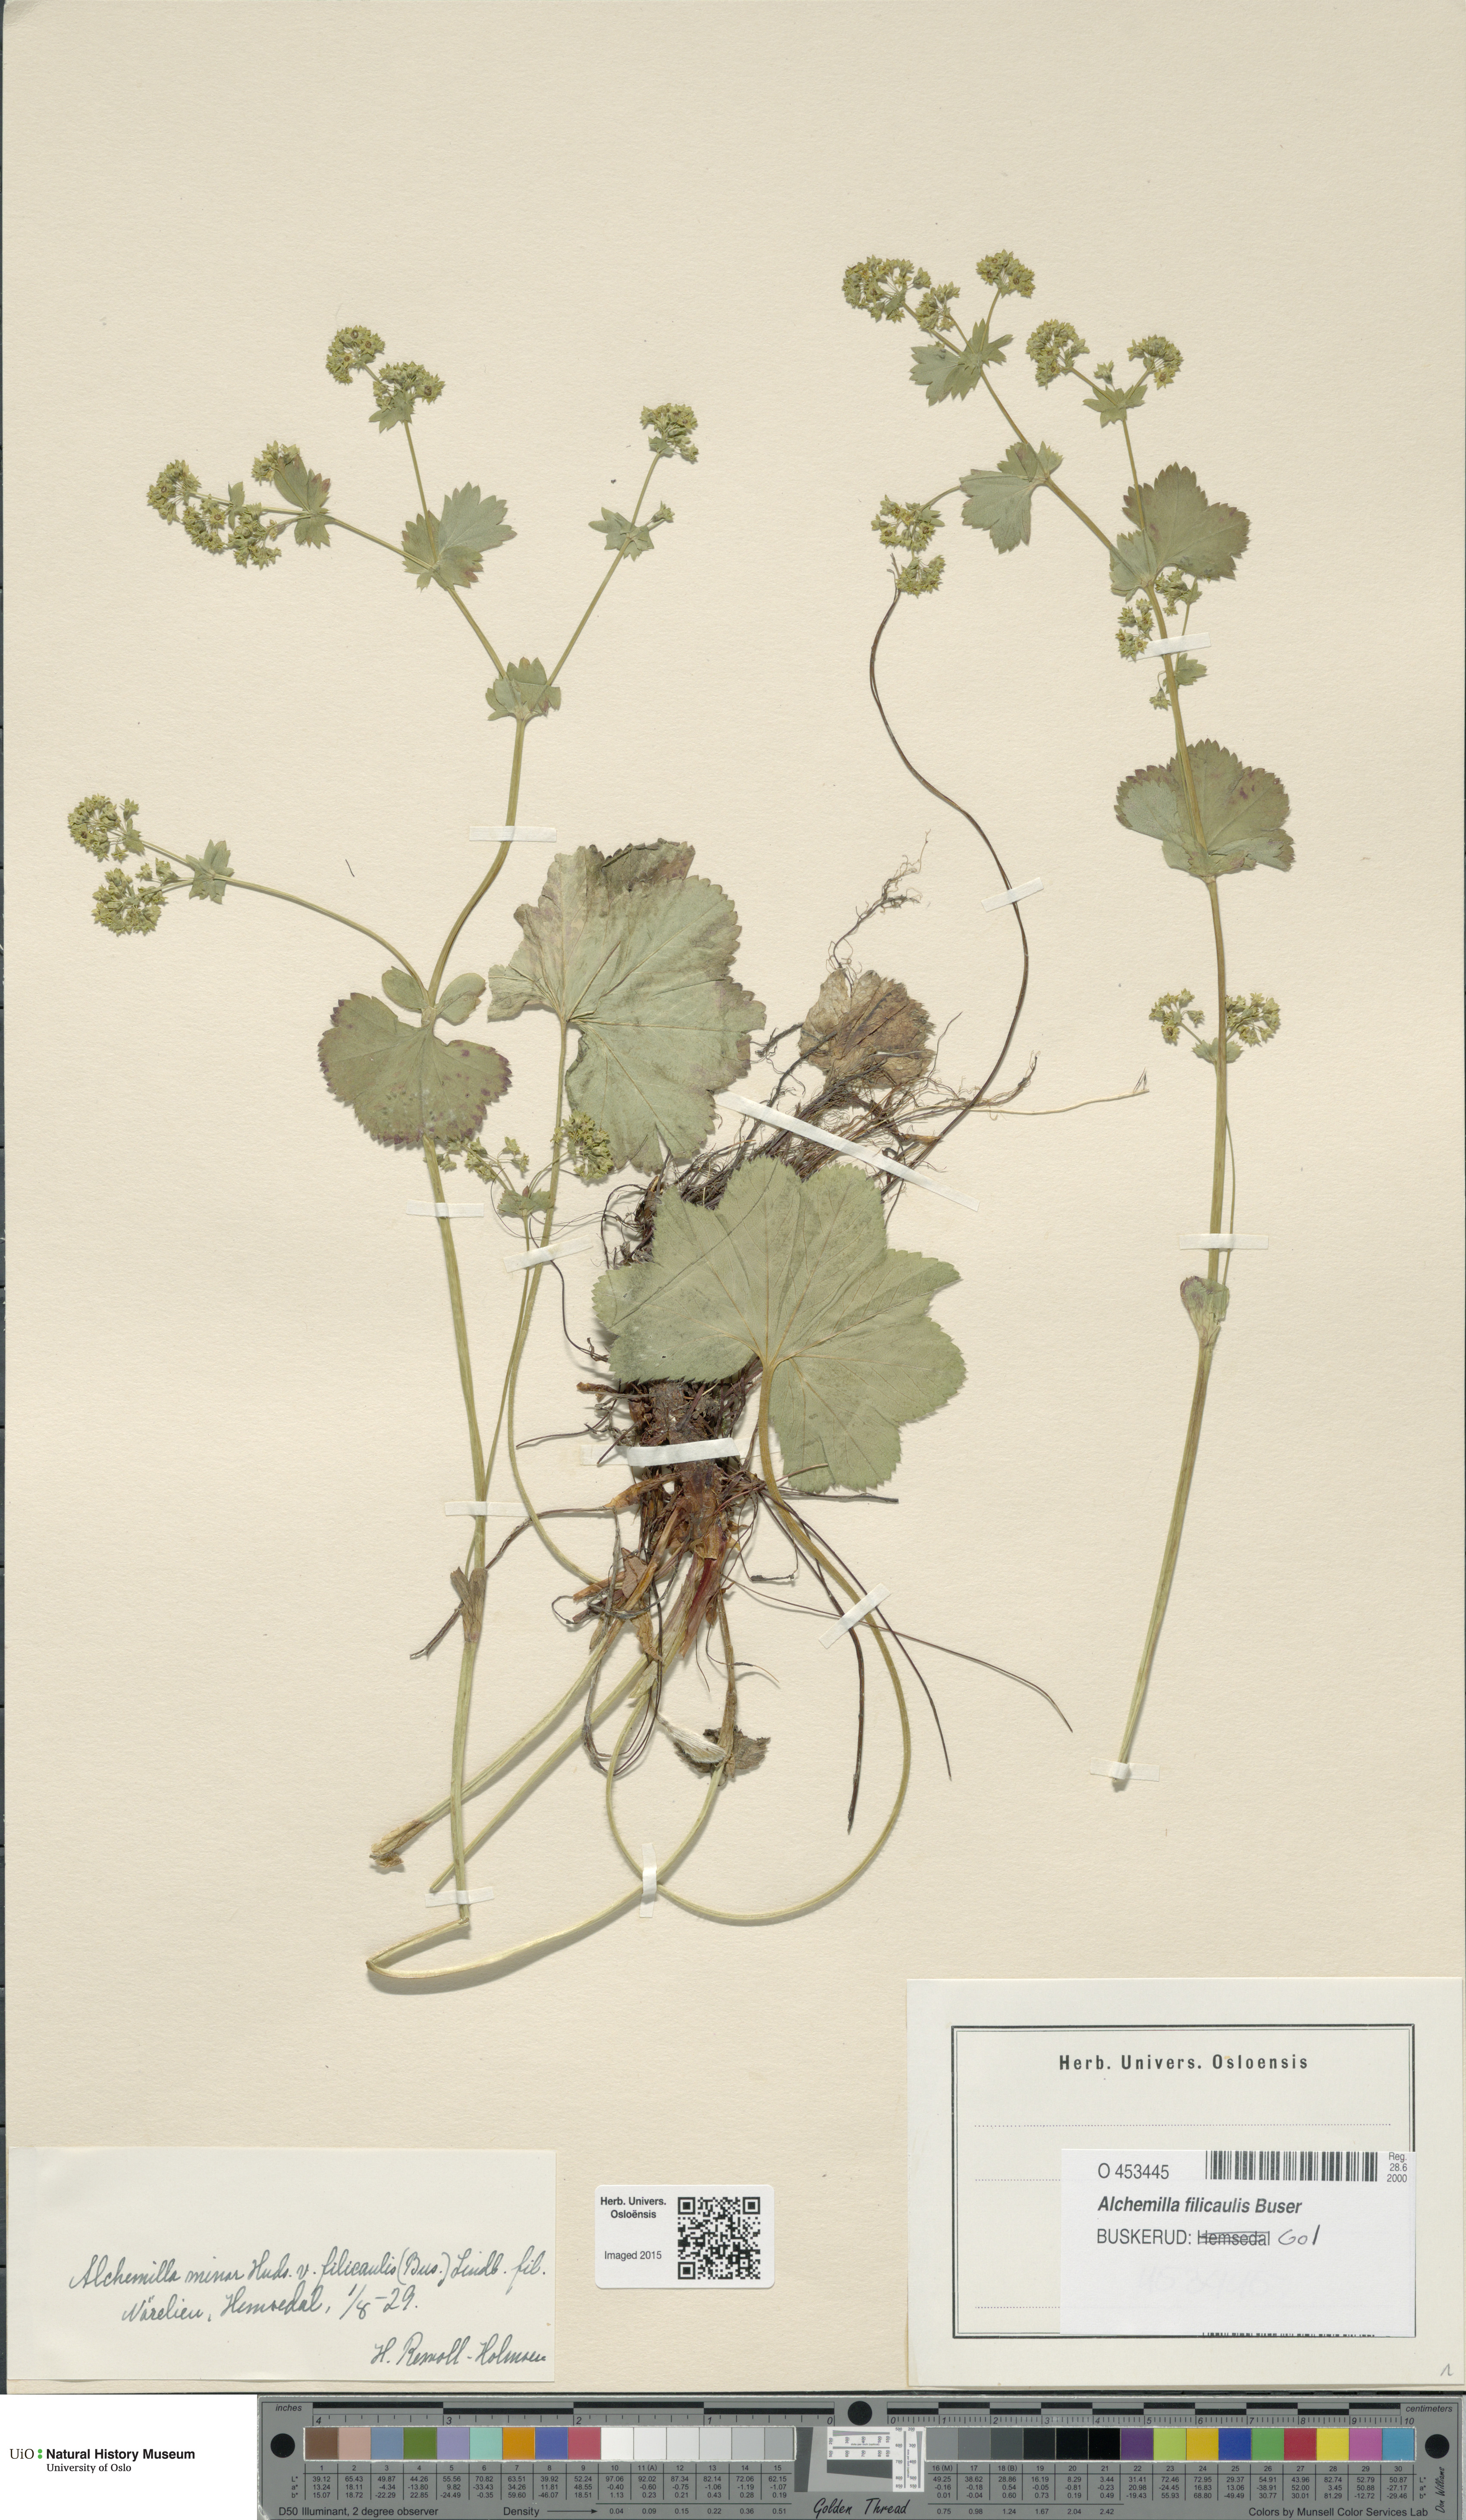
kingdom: Plantae
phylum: Tracheophyta
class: Magnoliopsida
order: Rosales
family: Rosaceae
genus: Alchemilla
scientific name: Alchemilla filicaulis
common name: Hairy lady's-mantle
